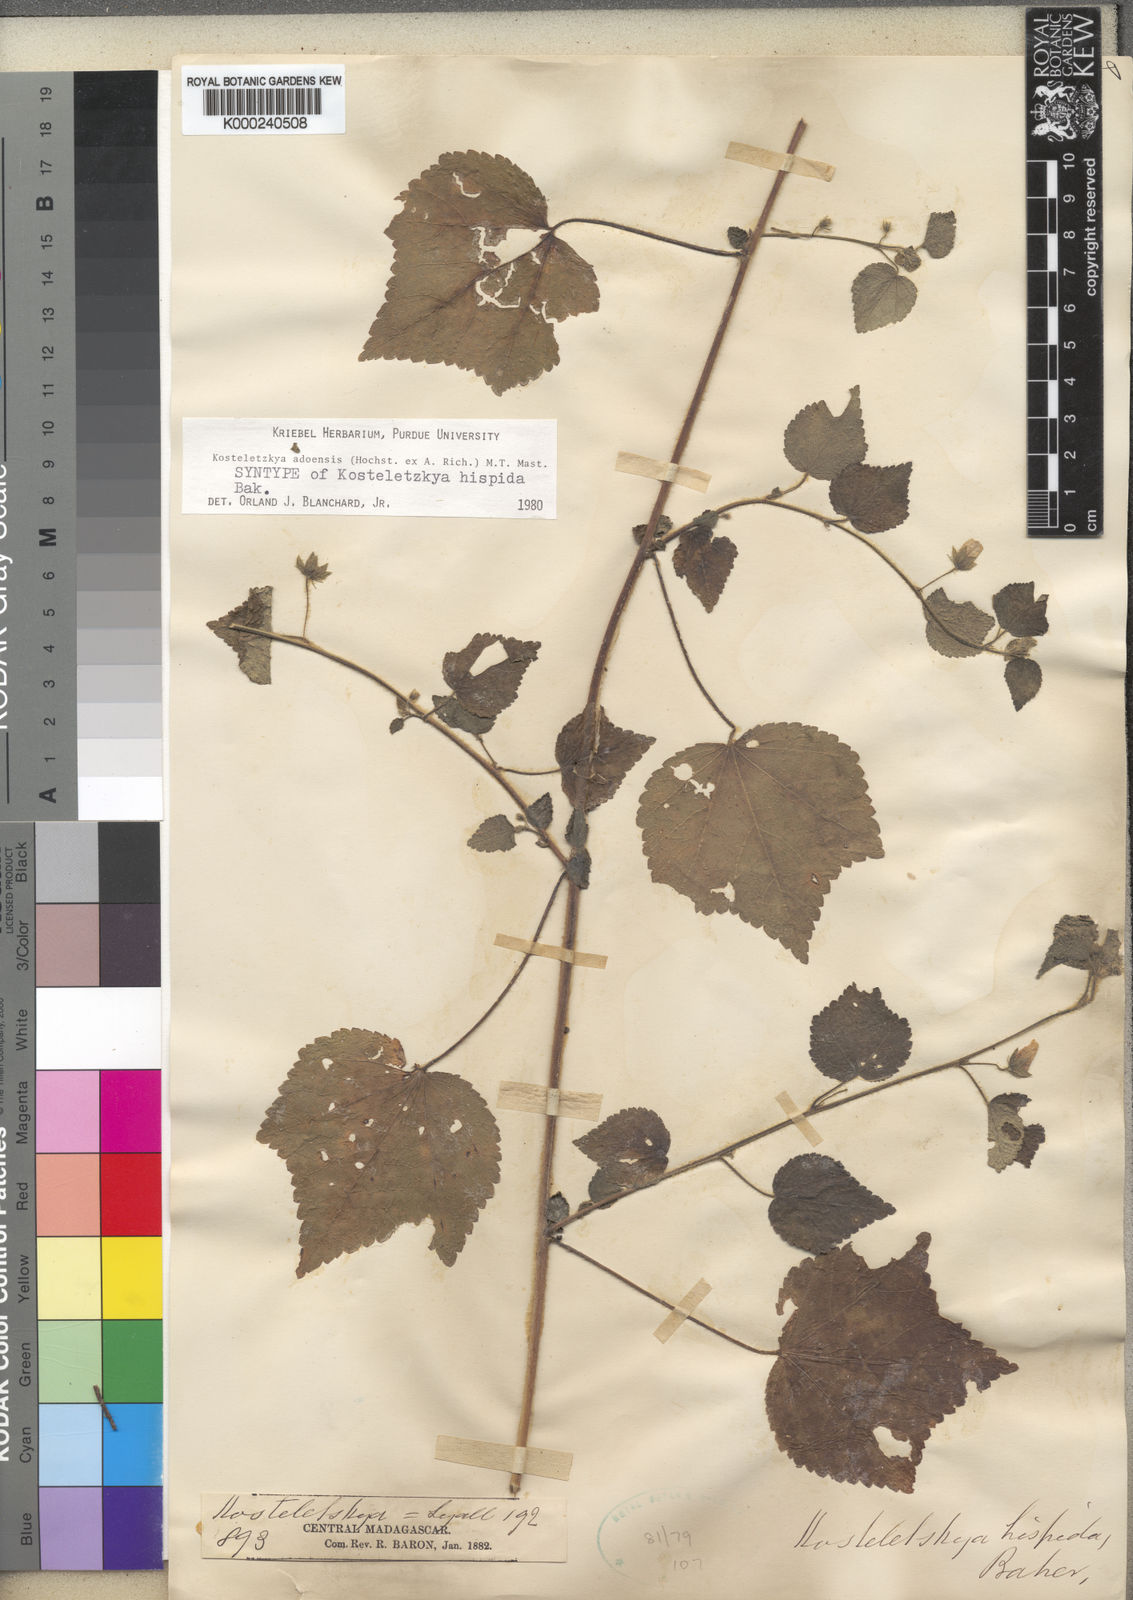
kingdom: Plantae
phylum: Tracheophyta
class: Magnoliopsida
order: Malvales
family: Malvaceae
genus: Kosteletzkya
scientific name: Kosteletzkya adoensis
